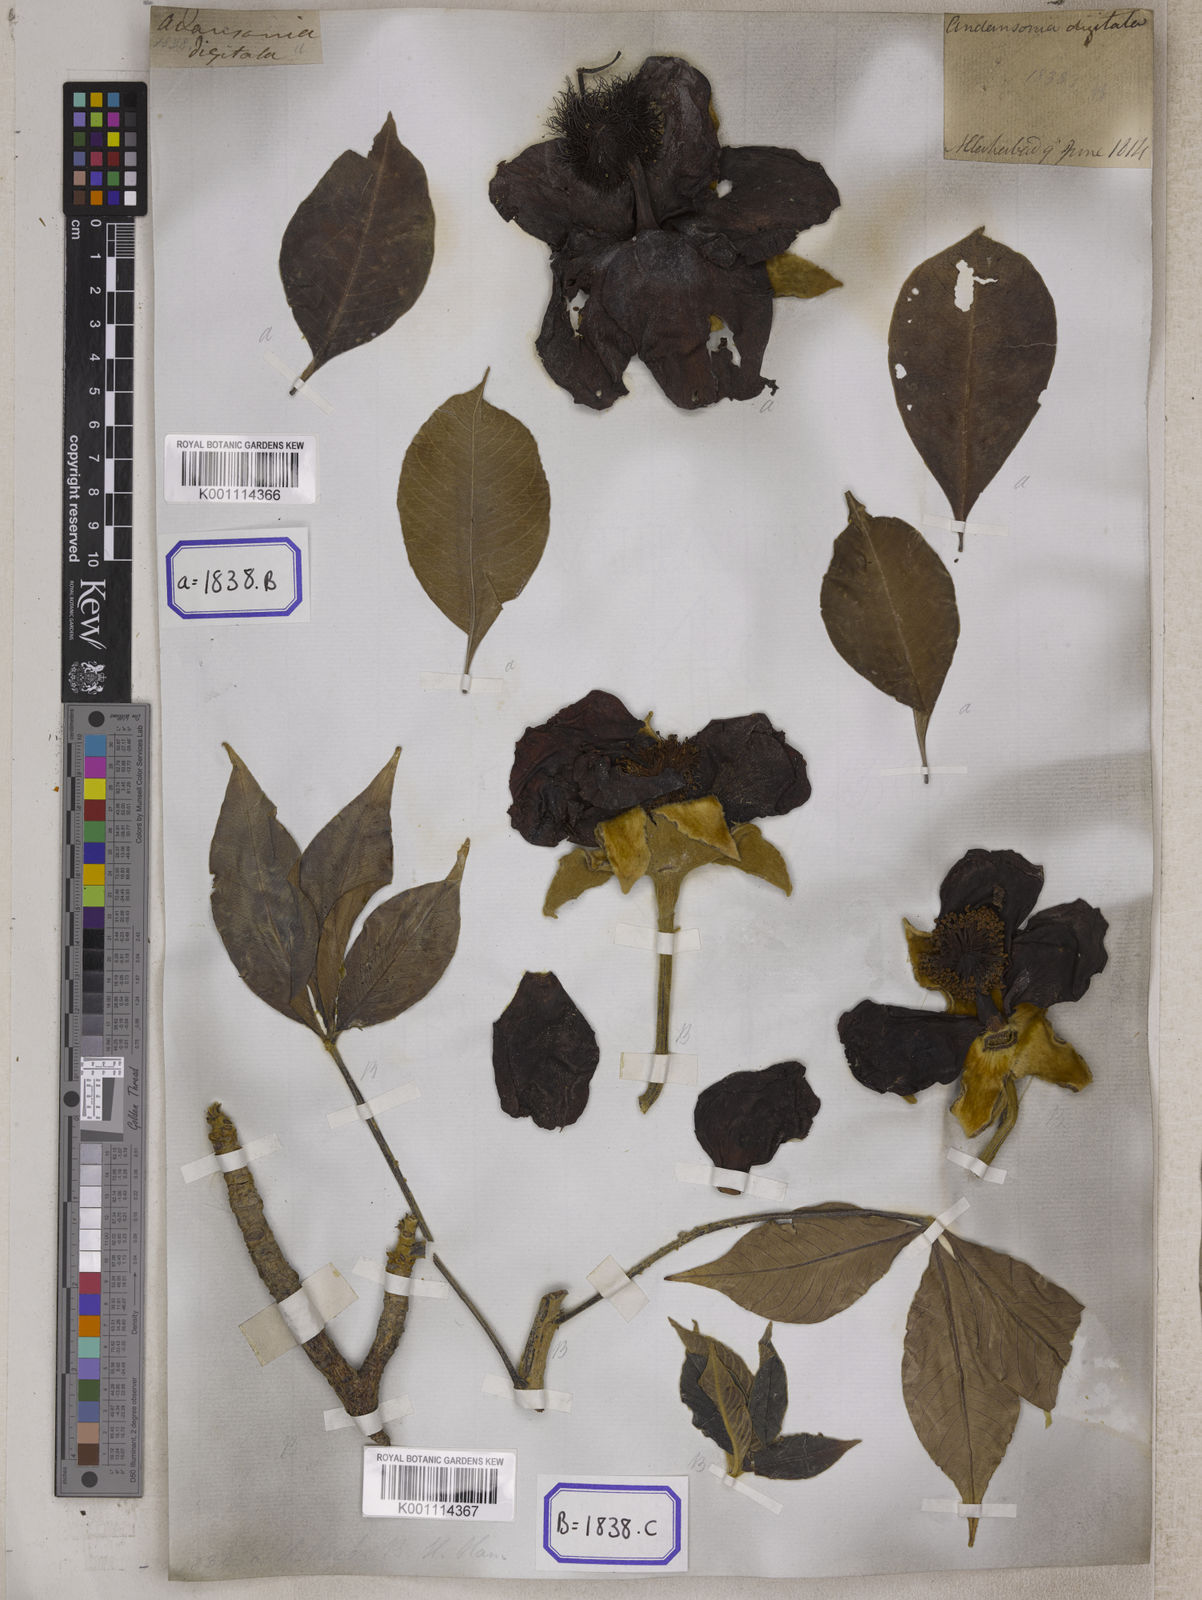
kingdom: Plantae
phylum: Tracheophyta
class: Magnoliopsida
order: Malvales
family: Malvaceae
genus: Adansonia
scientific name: Adansonia digitata
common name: Dead-rat-tree
